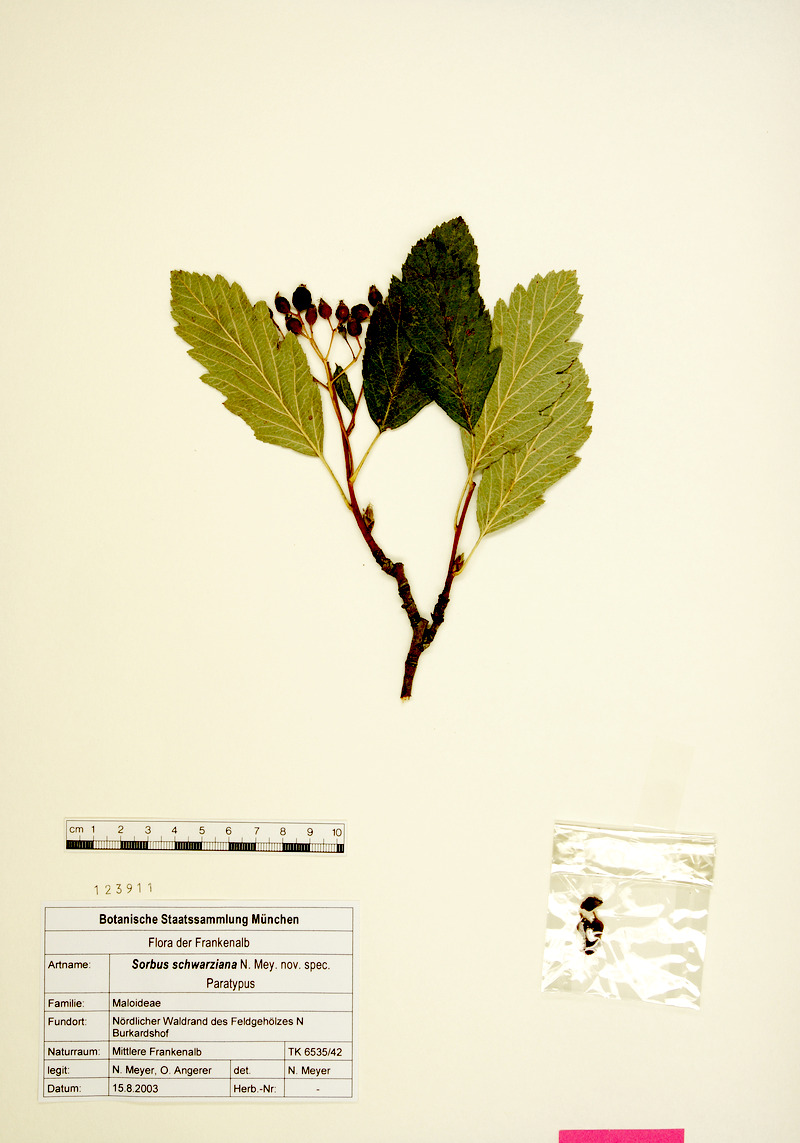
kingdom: Plantae
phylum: Tracheophyta
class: Magnoliopsida
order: Rosales
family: Rosaceae
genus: Hedlundia
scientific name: Hedlundia schwarziana
